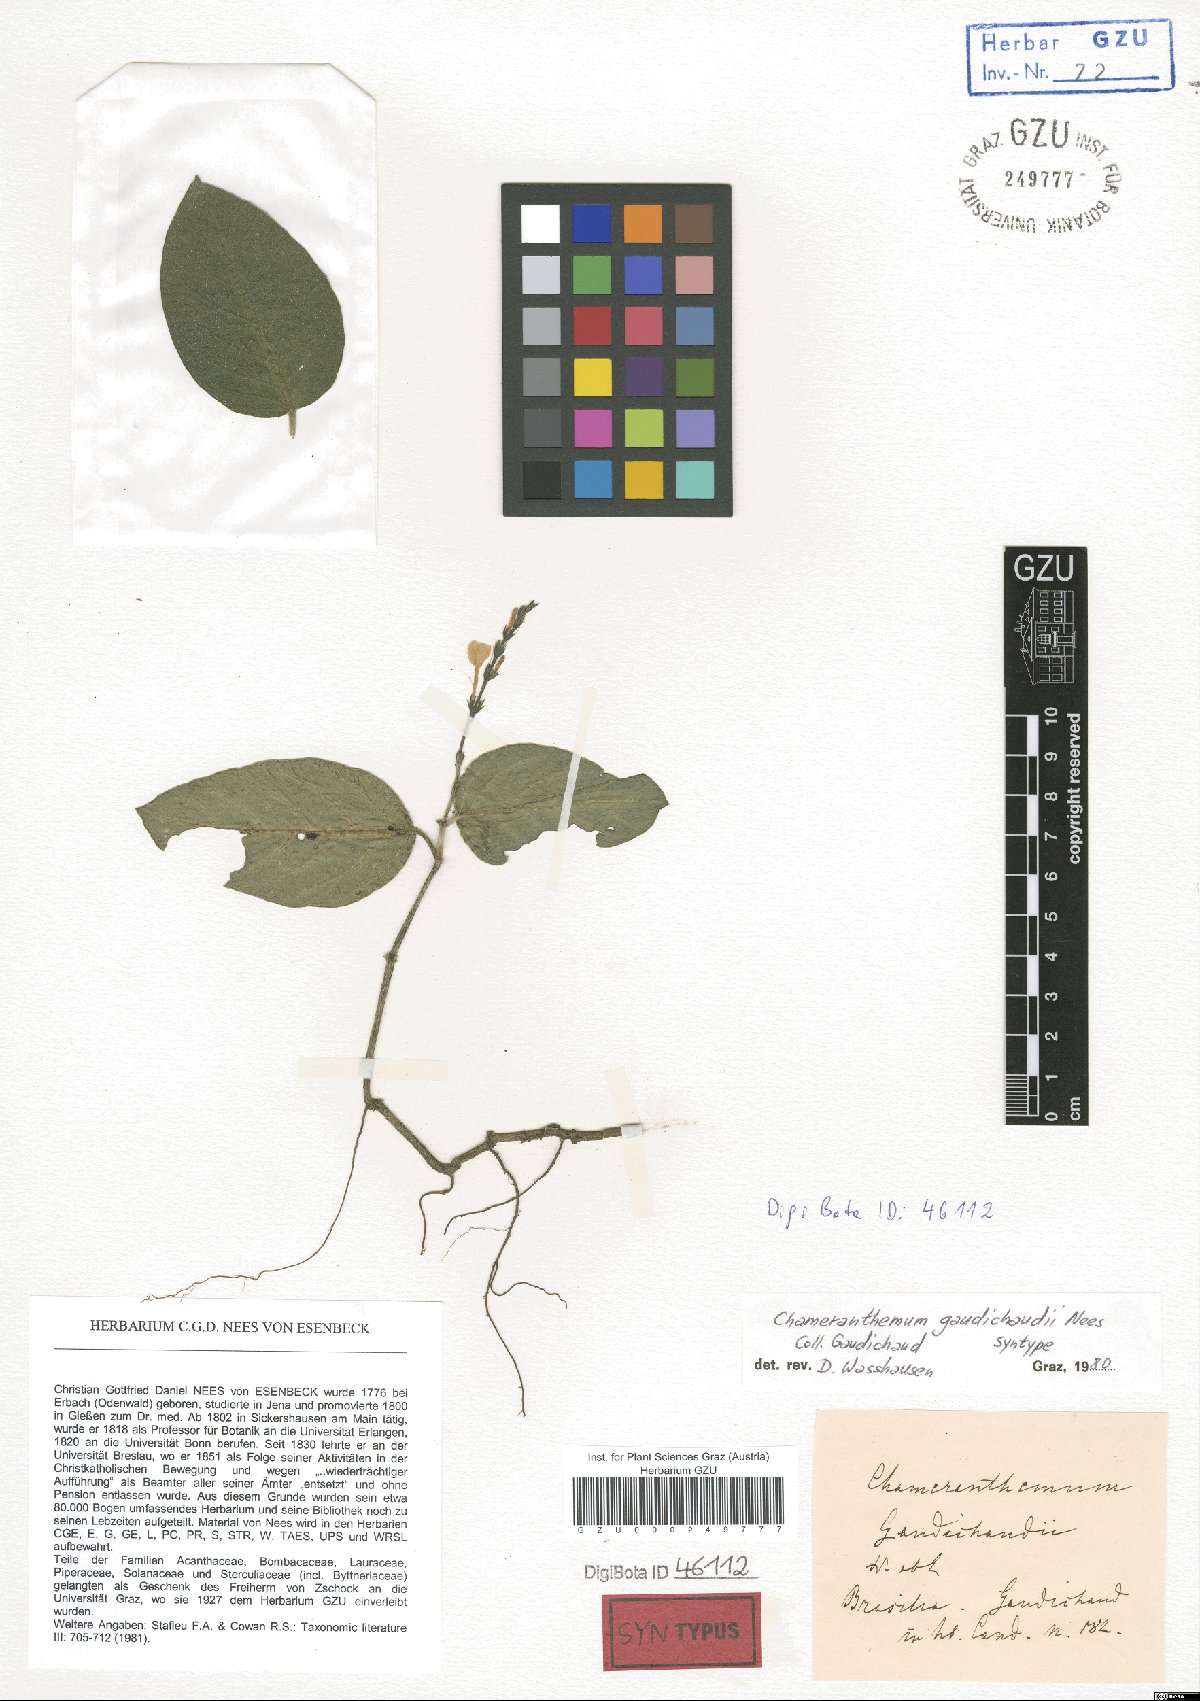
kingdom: Plantae
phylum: Tracheophyta
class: Magnoliopsida
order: Lamiales
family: Acanthaceae
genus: Chamaeranthemum
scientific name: Chamaeranthemum beyrichii
